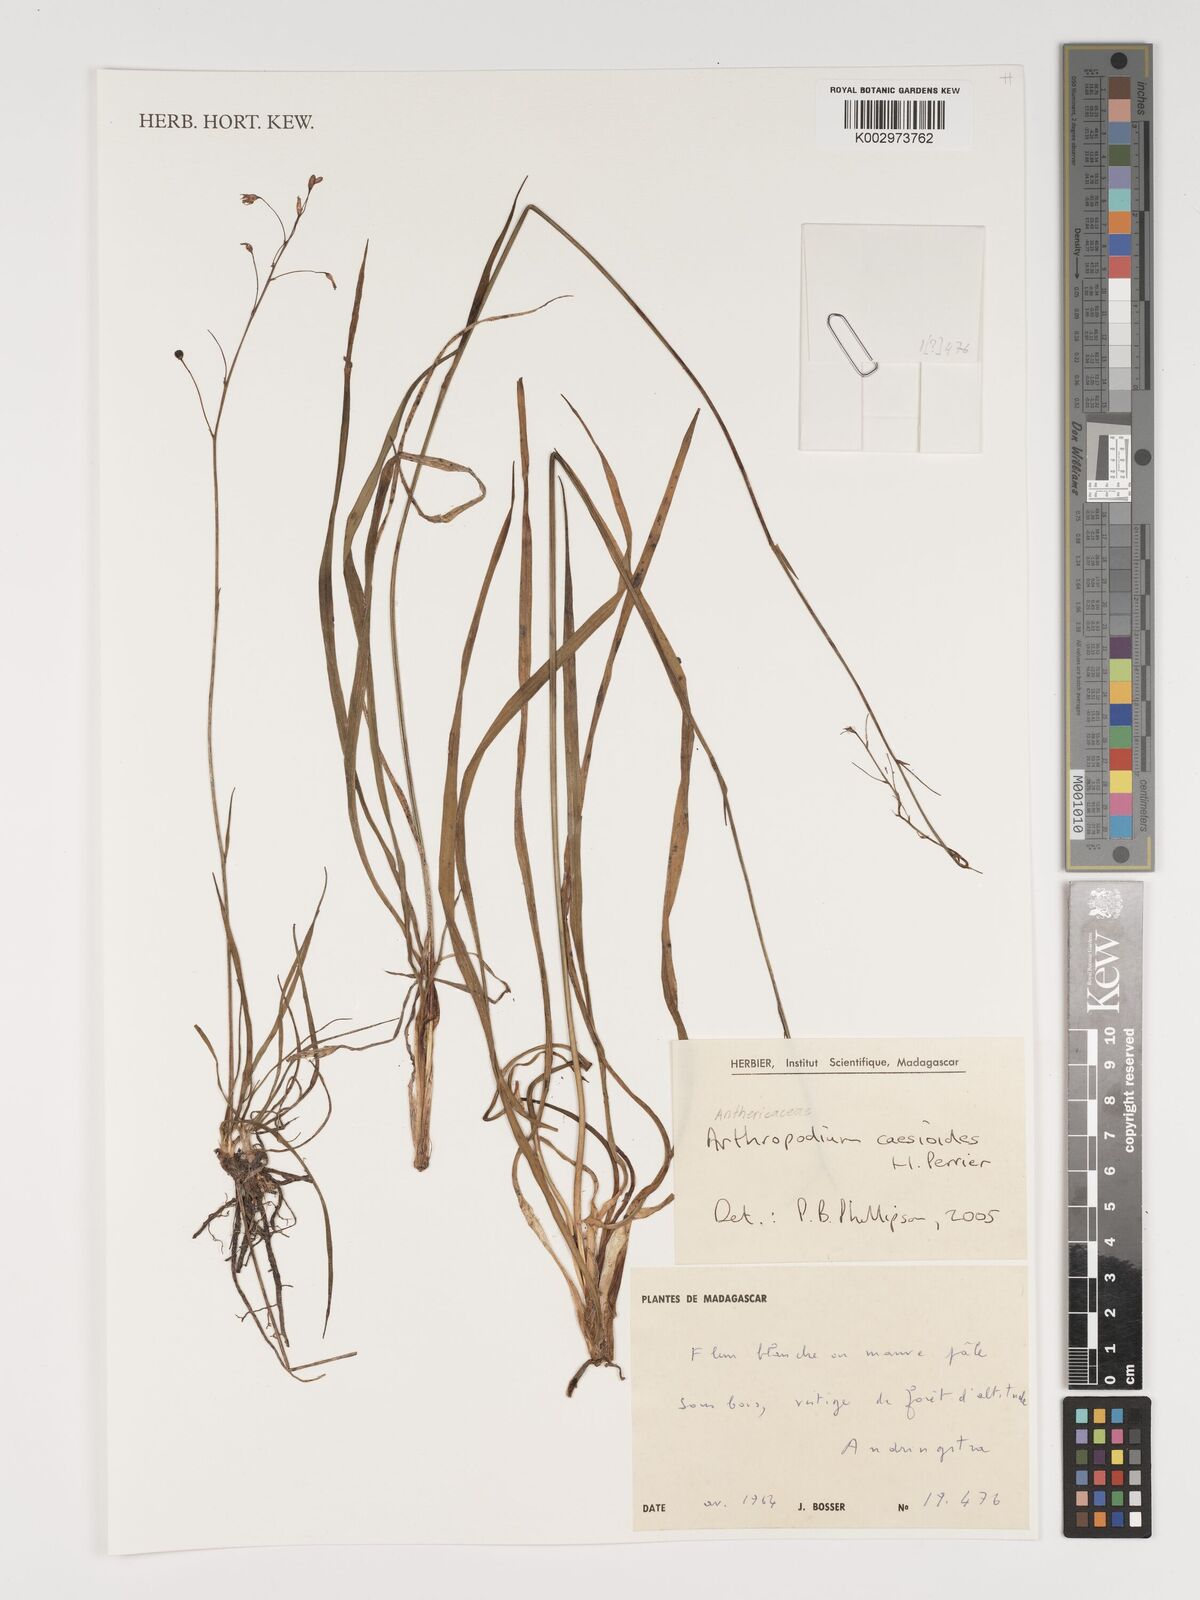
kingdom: Plantae
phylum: Tracheophyta
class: Liliopsida
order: Asparagales
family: Asparagaceae
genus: Arthropodium
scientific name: Arthropodium caesioides
